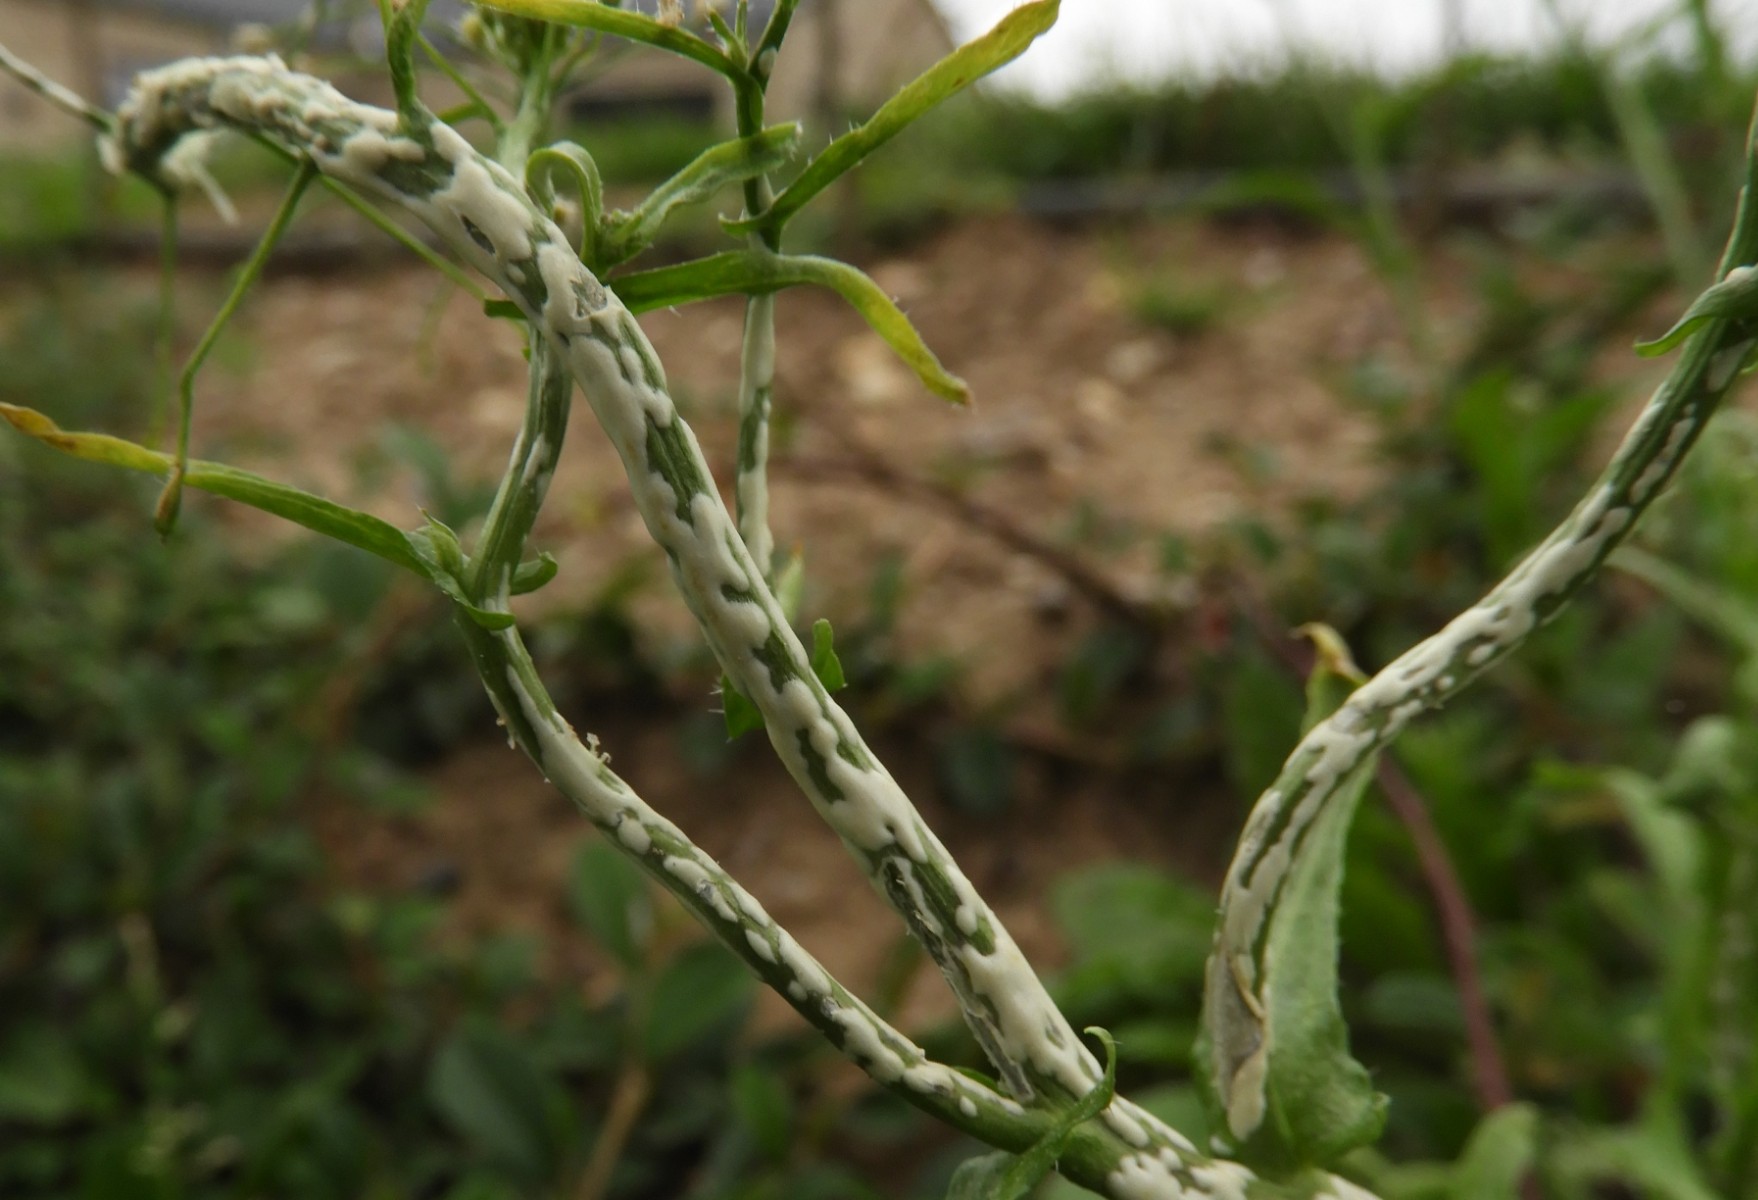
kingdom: Chromista
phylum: Oomycota
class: Peronosporea
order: Albuginales
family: Albuginaceae
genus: Albugo
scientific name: Albugo candida
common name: Crucifer white blister
